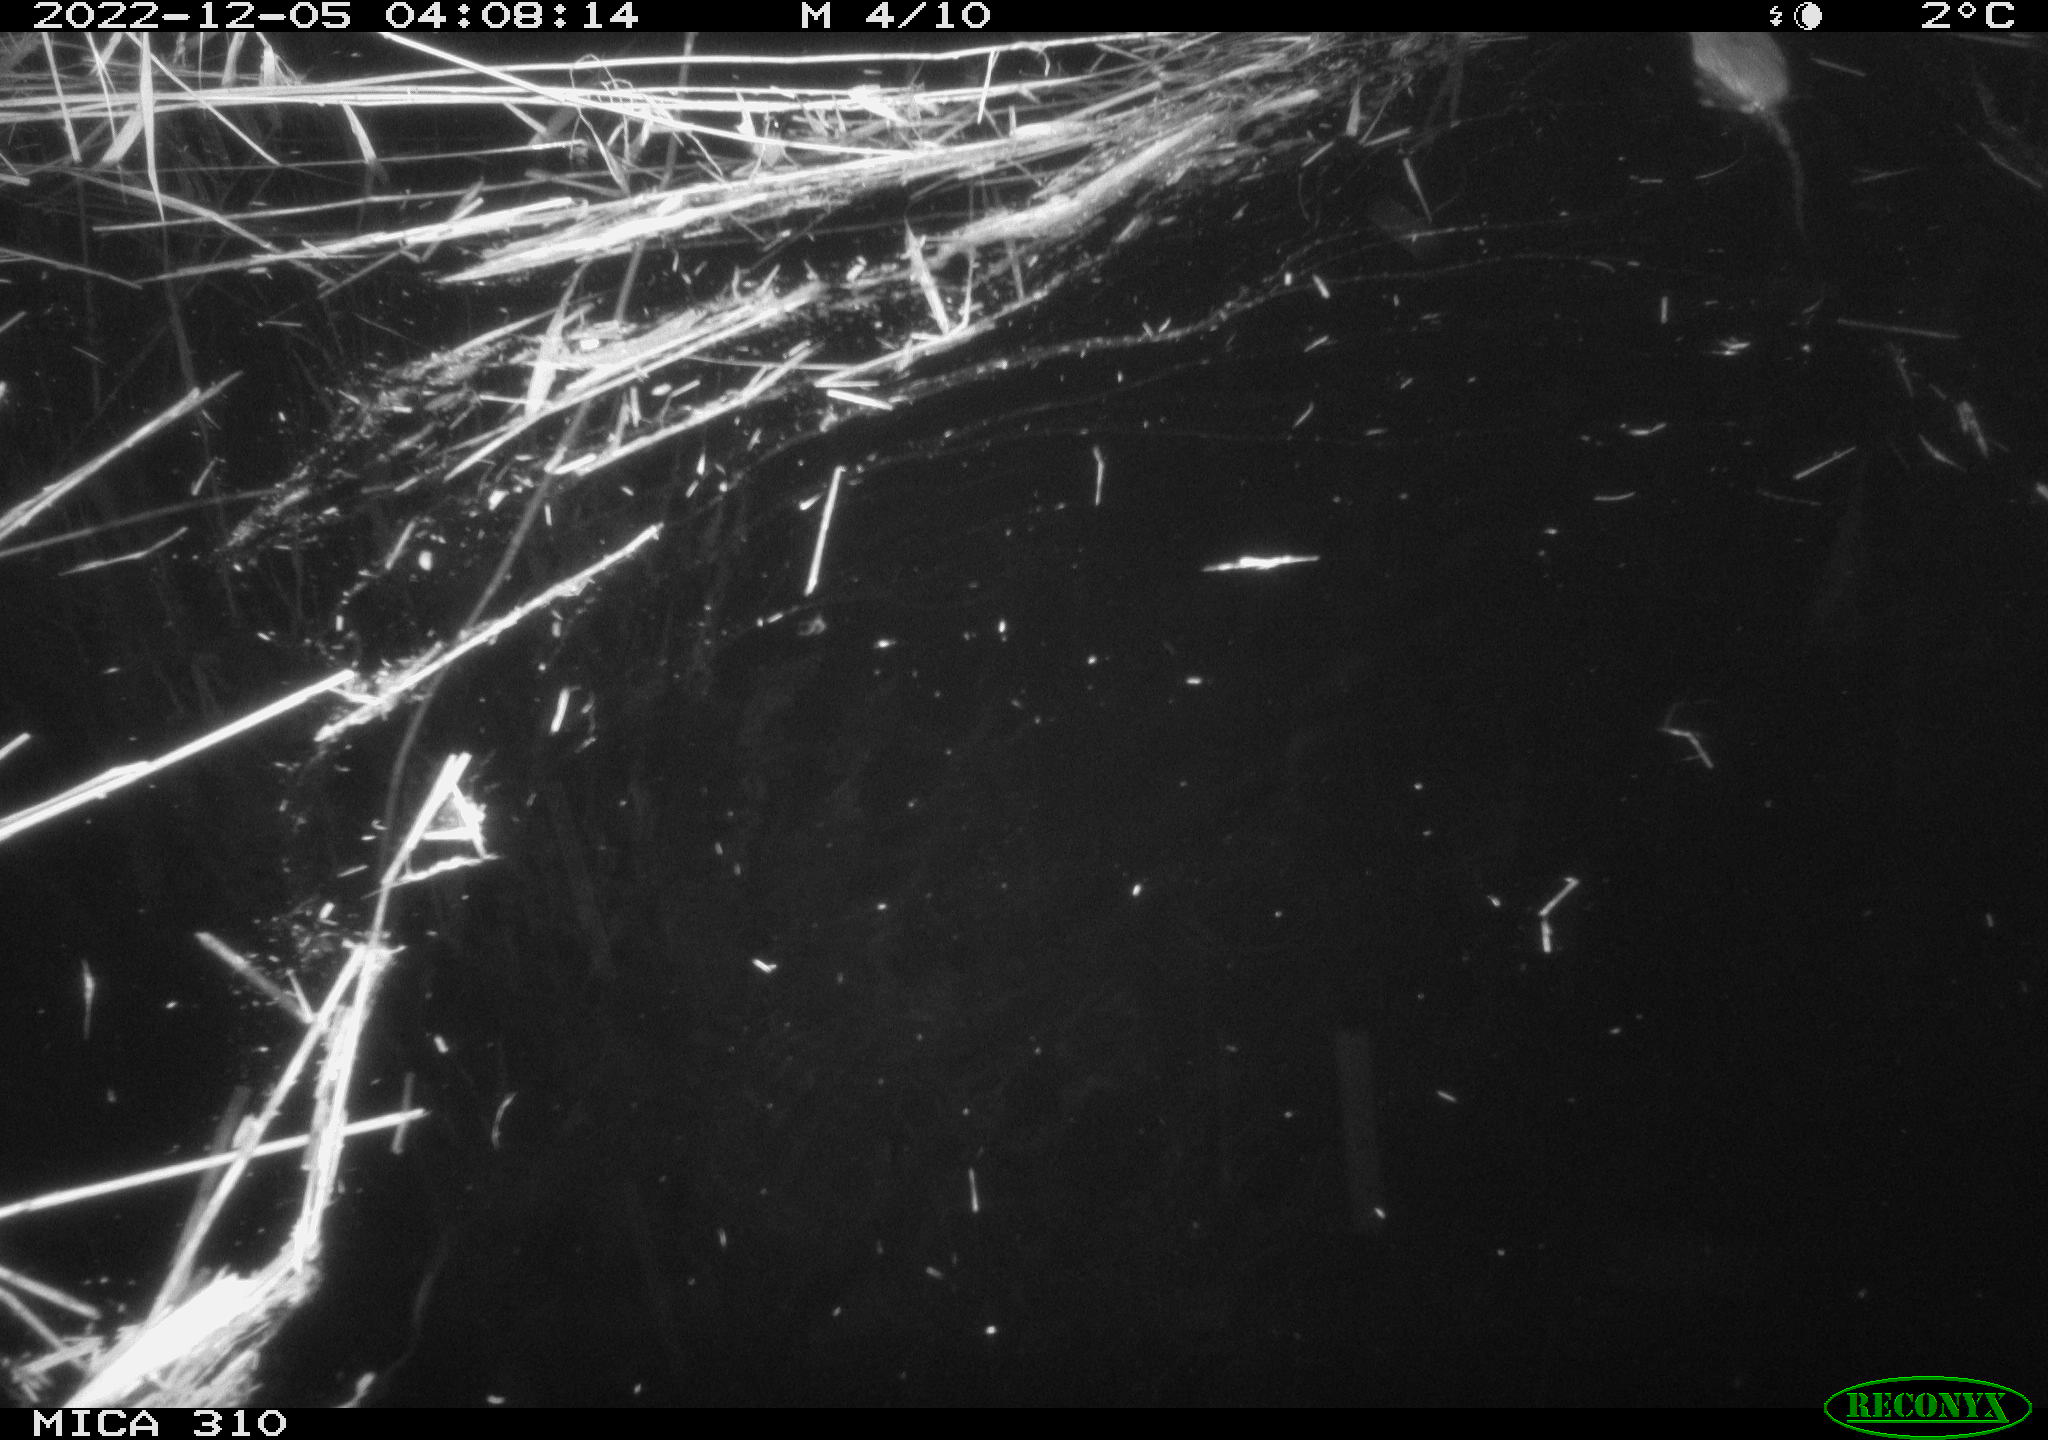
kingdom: Animalia
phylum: Chordata
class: Mammalia
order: Rodentia
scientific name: Rodentia
